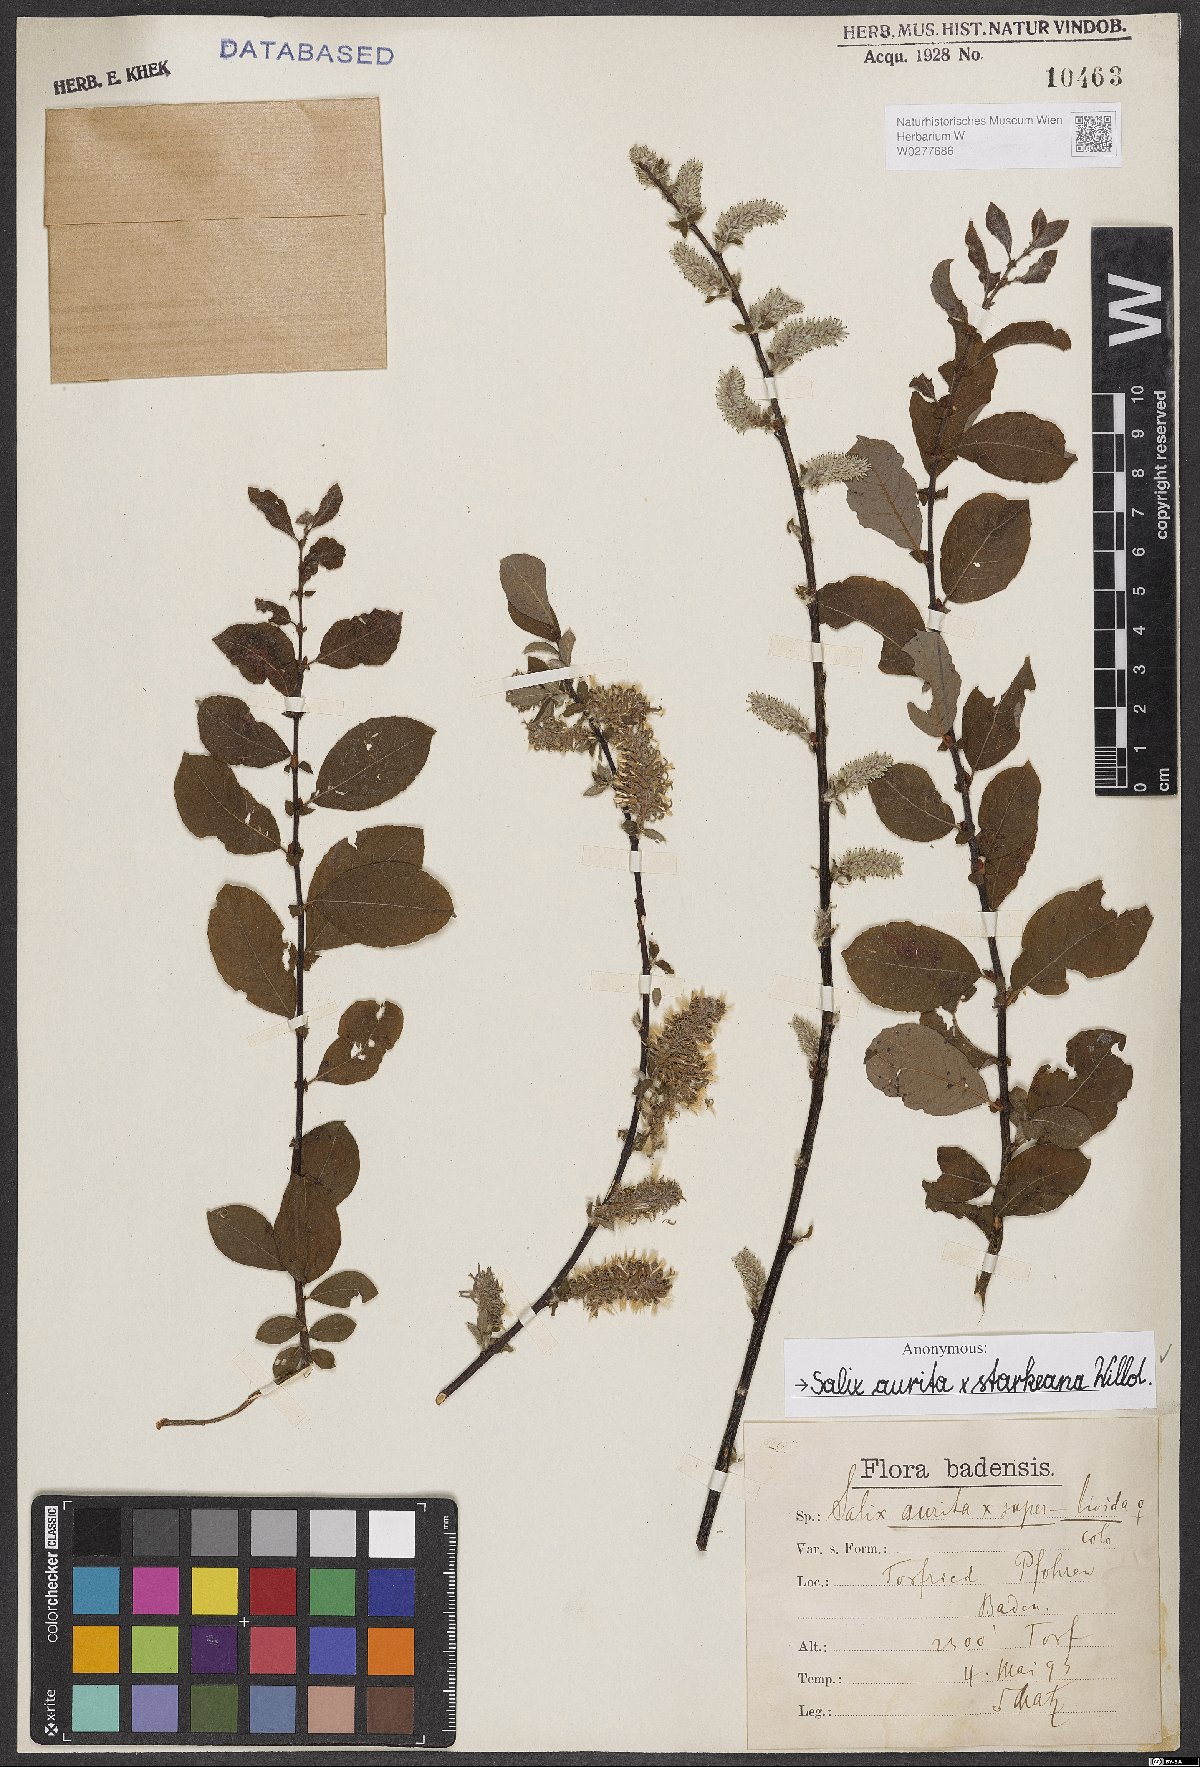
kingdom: Plantae
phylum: Tracheophyta
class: Magnoliopsida
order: Malpighiales
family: Salicaceae
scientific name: Salicaceae
